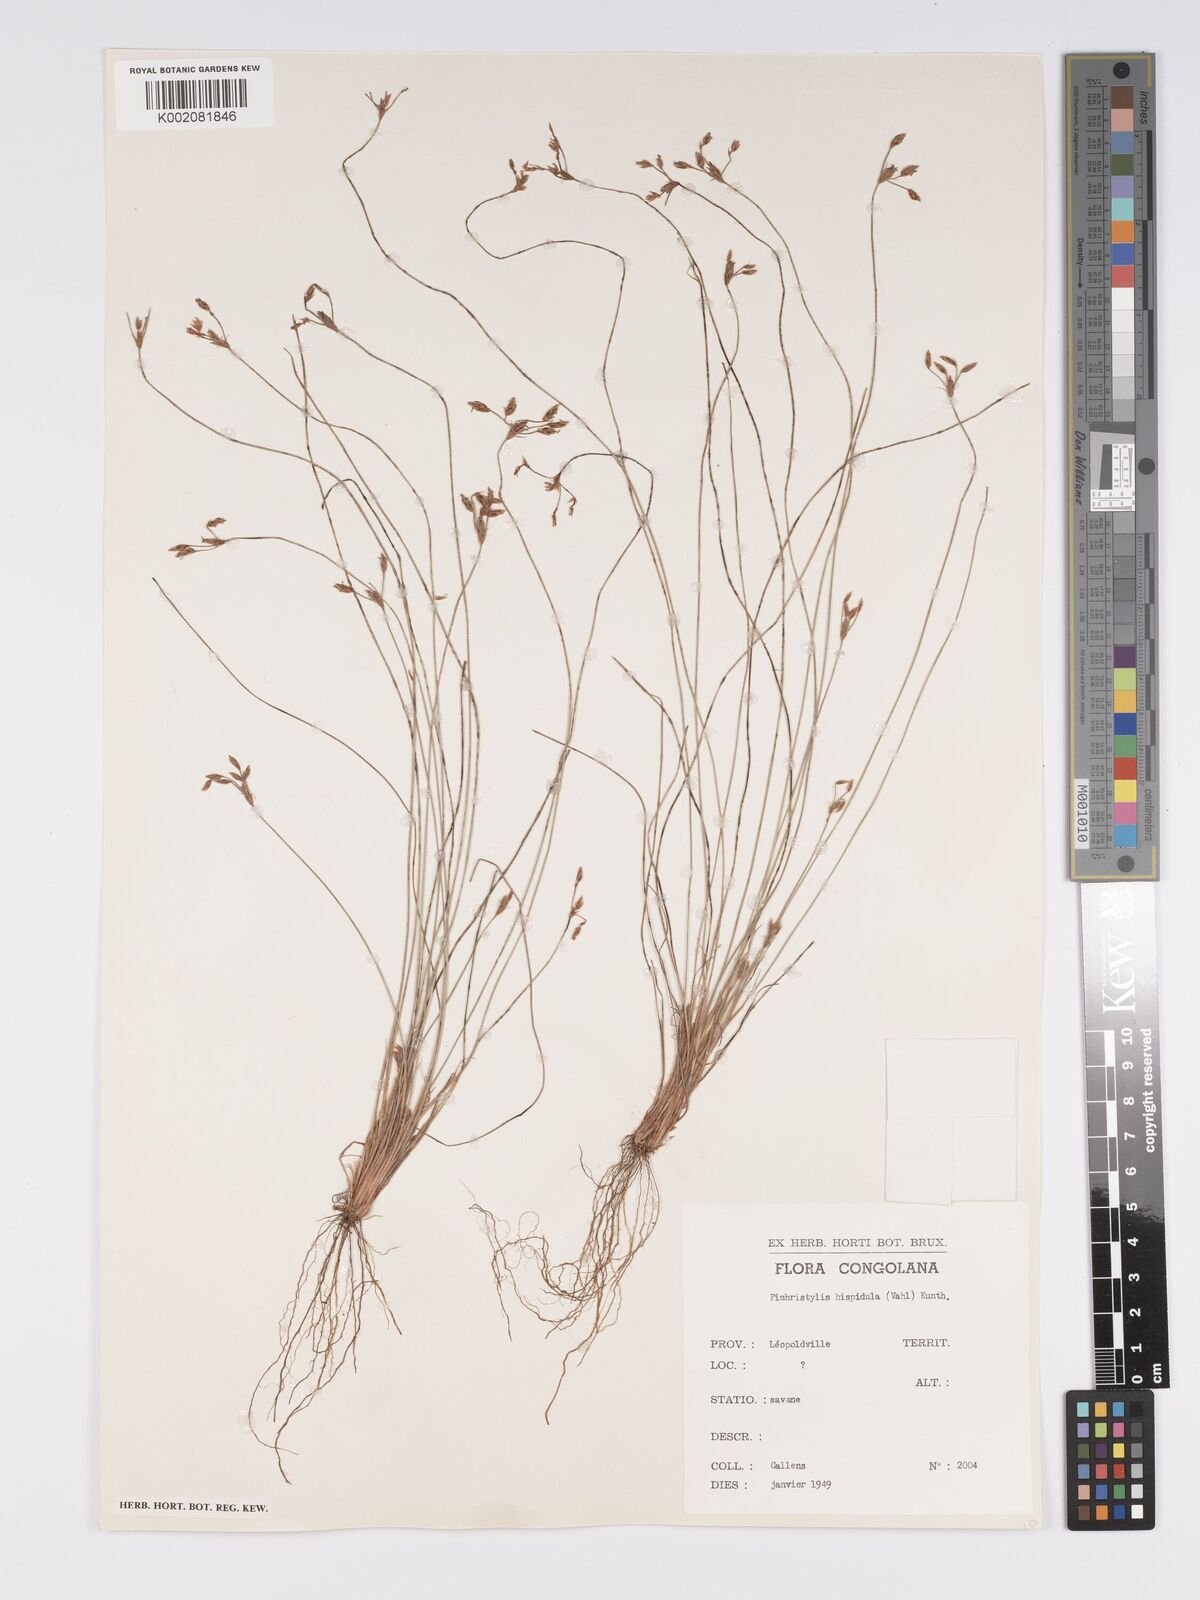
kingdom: Plantae
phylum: Tracheophyta
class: Liliopsida
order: Poales
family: Cyperaceae
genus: Bulbostylis
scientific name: Bulbostylis hispidula
